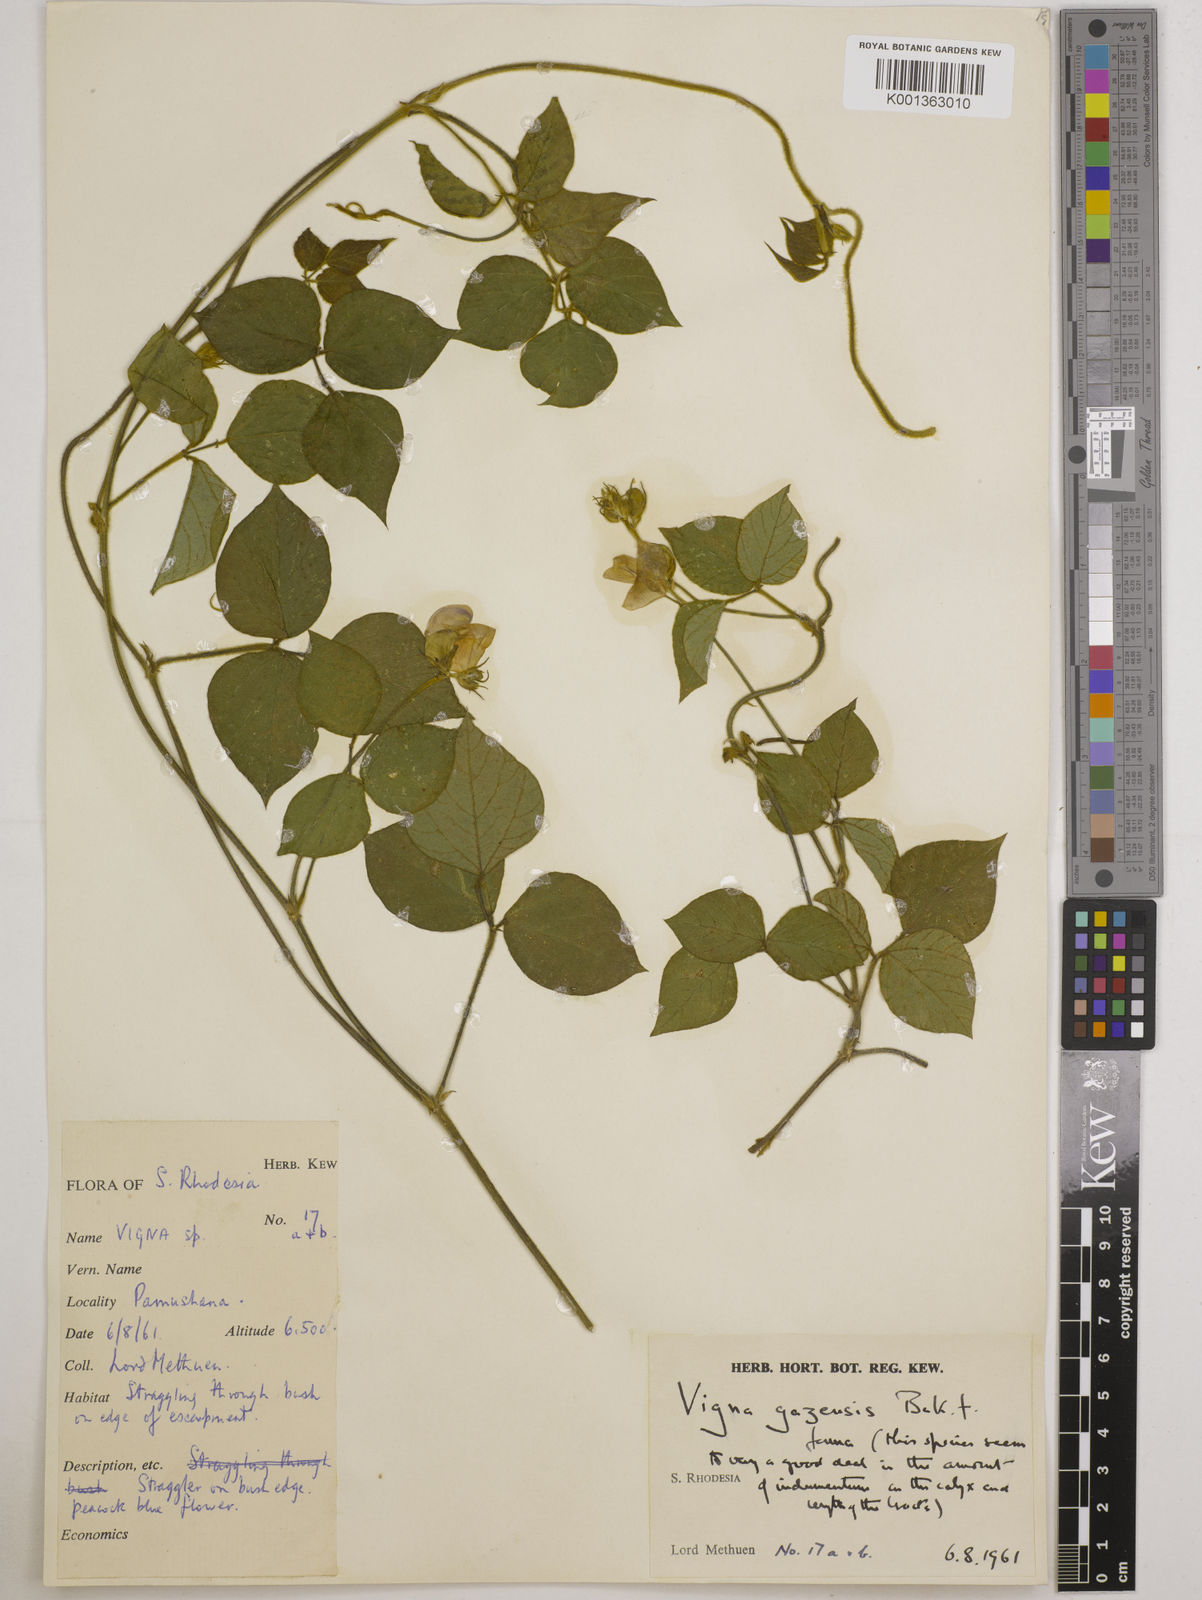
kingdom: Plantae
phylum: Tracheophyta
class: Magnoliopsida
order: Fabales
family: Fabaceae
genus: Vigna
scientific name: Vigna gazensis
